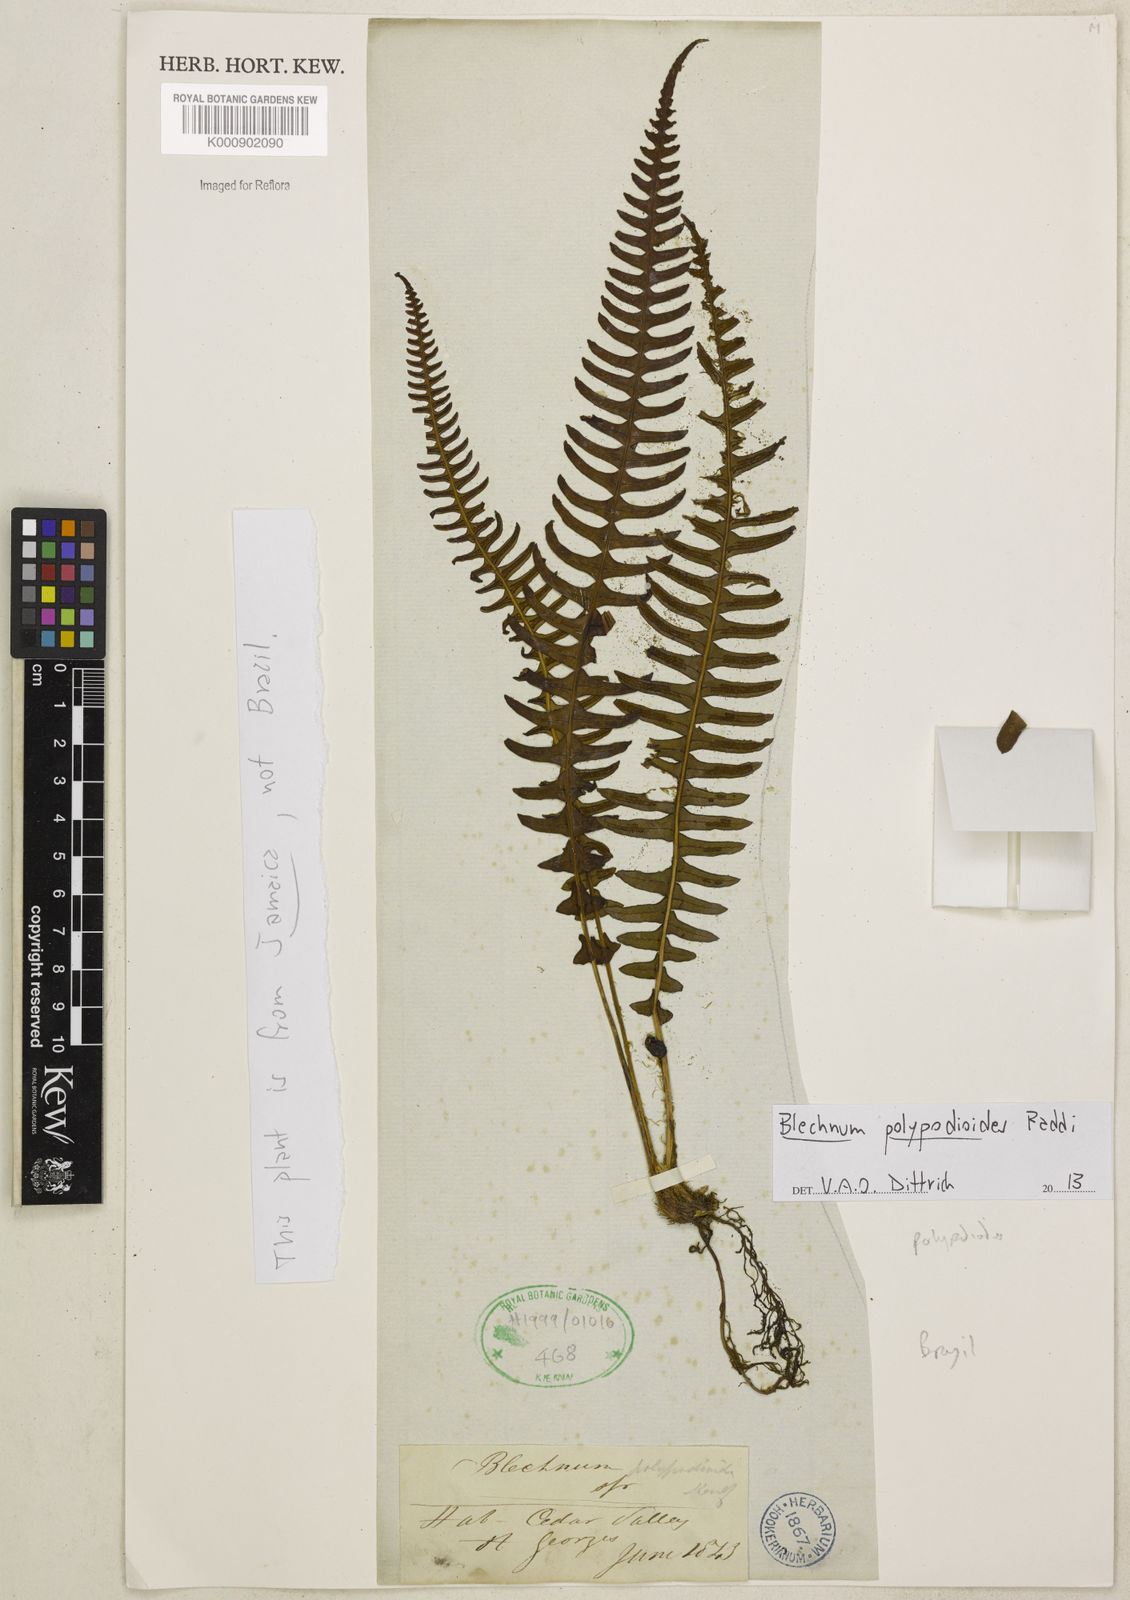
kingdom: Plantae
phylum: Tracheophyta
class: Polypodiopsida
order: Polypodiales
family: Blechnaceae
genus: Blechnum
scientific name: Blechnum polypodioides
